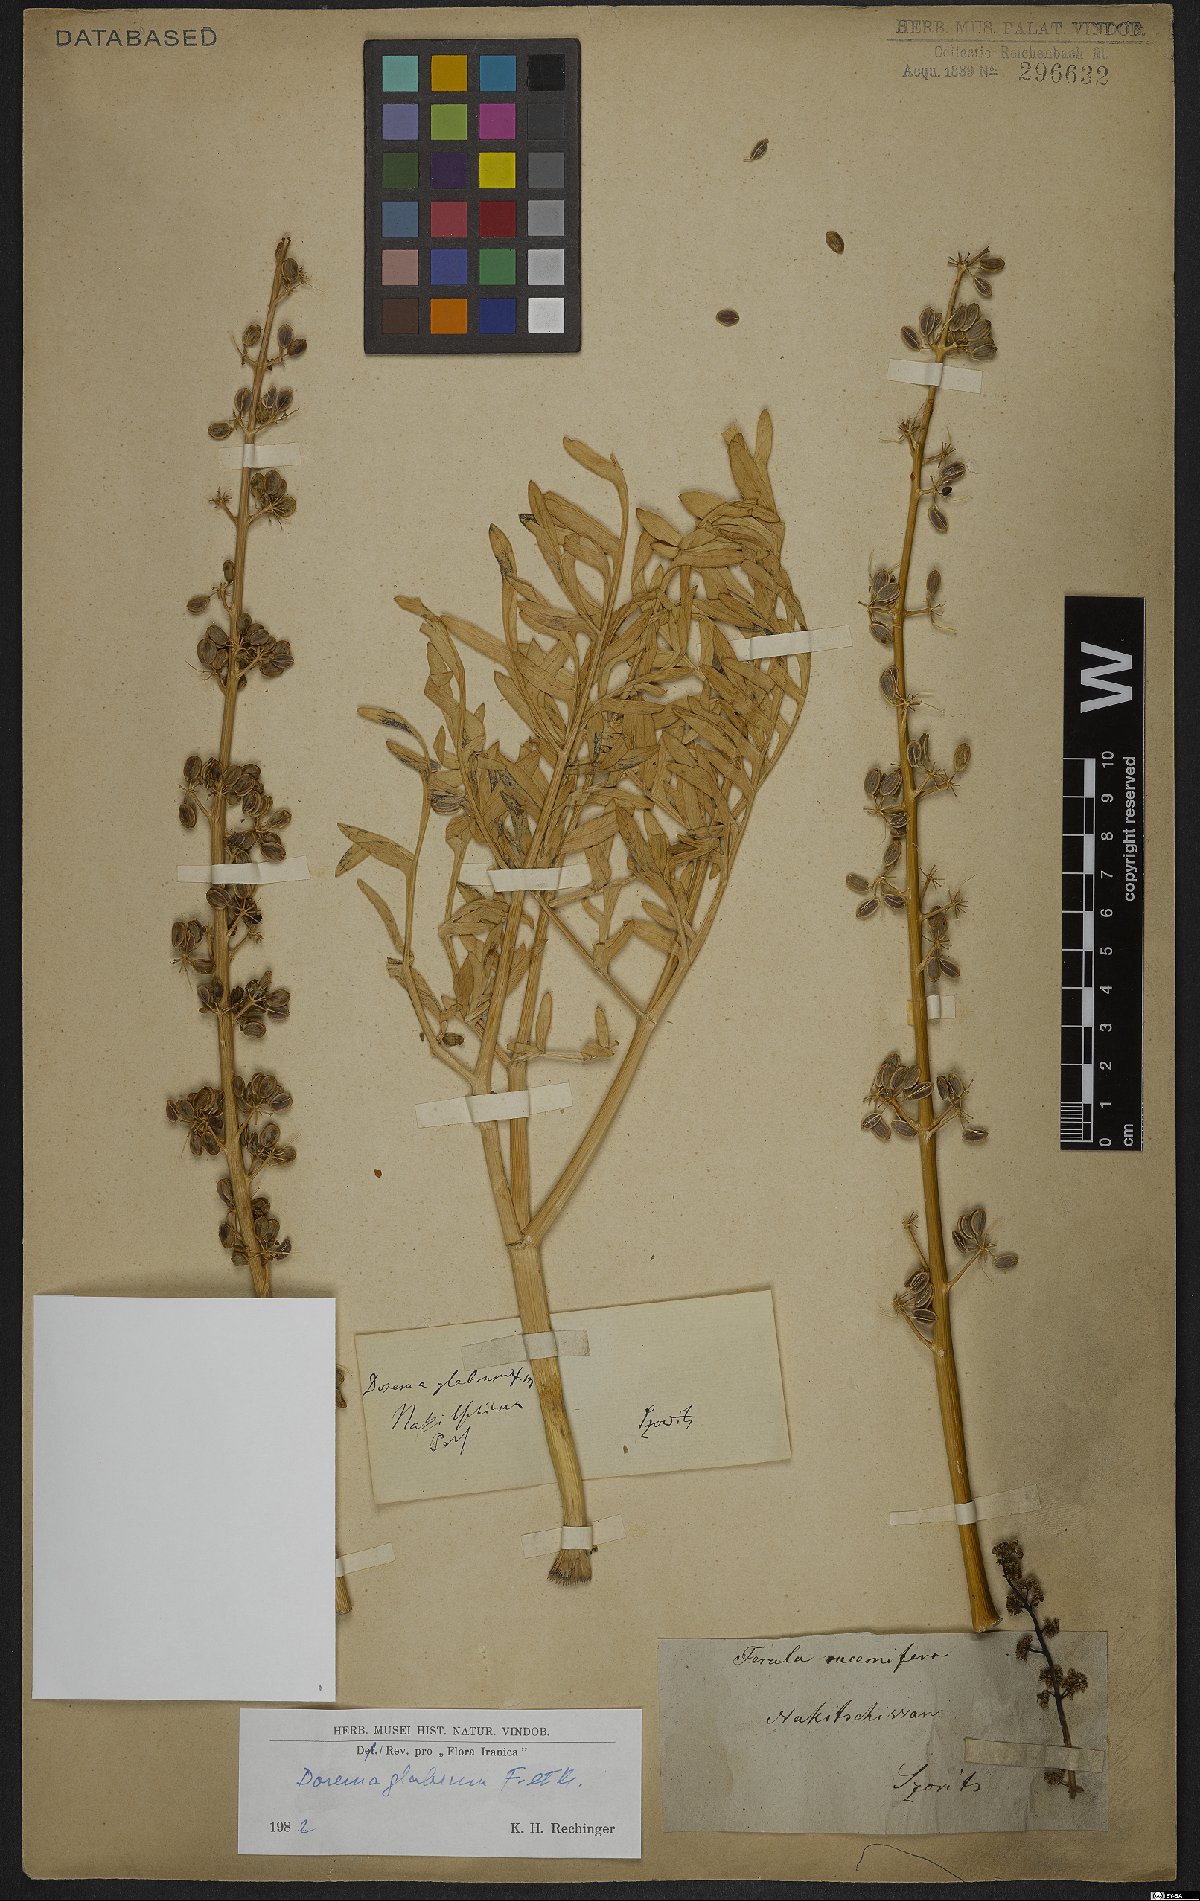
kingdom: Plantae
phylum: Tracheophyta
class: Magnoliopsida
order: Apiales
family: Apiaceae
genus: Ferula
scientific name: Ferula glabrifolia
